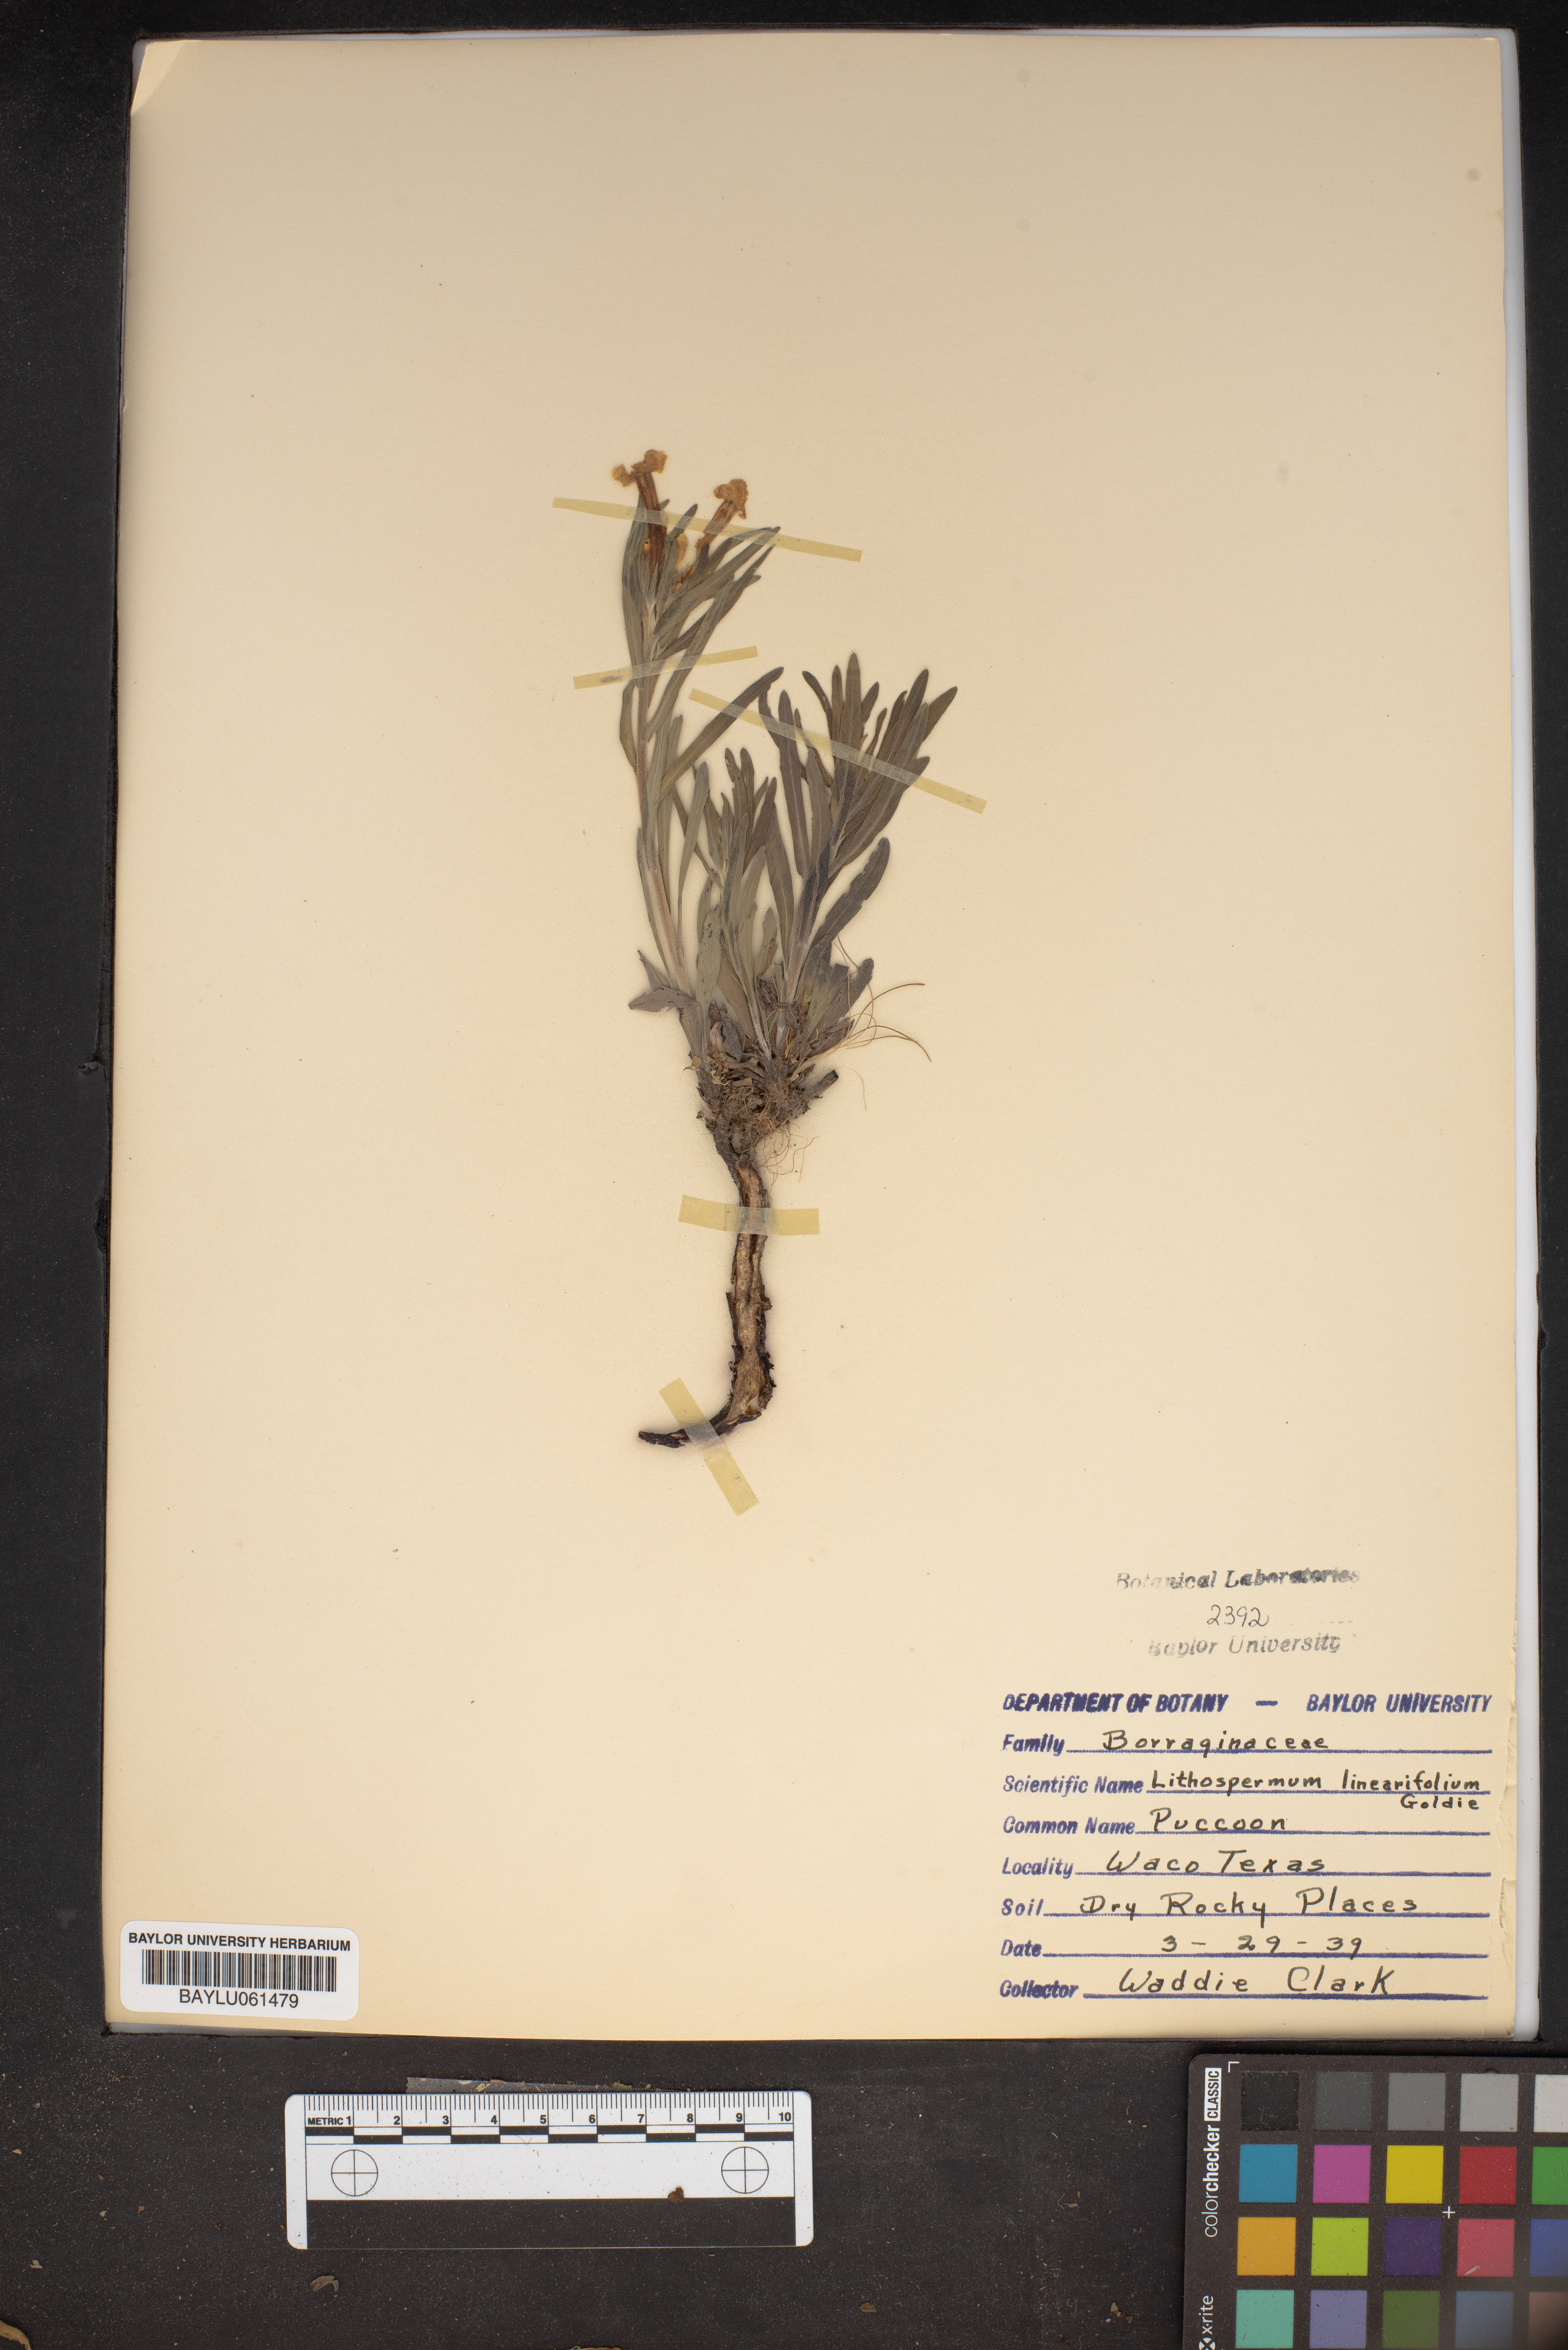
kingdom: Plantae
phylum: Tracheophyta
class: Magnoliopsida
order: Boraginales
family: Boraginaceae
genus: Lithospermum
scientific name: Lithospermum incisum
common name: Fringed gromwell
